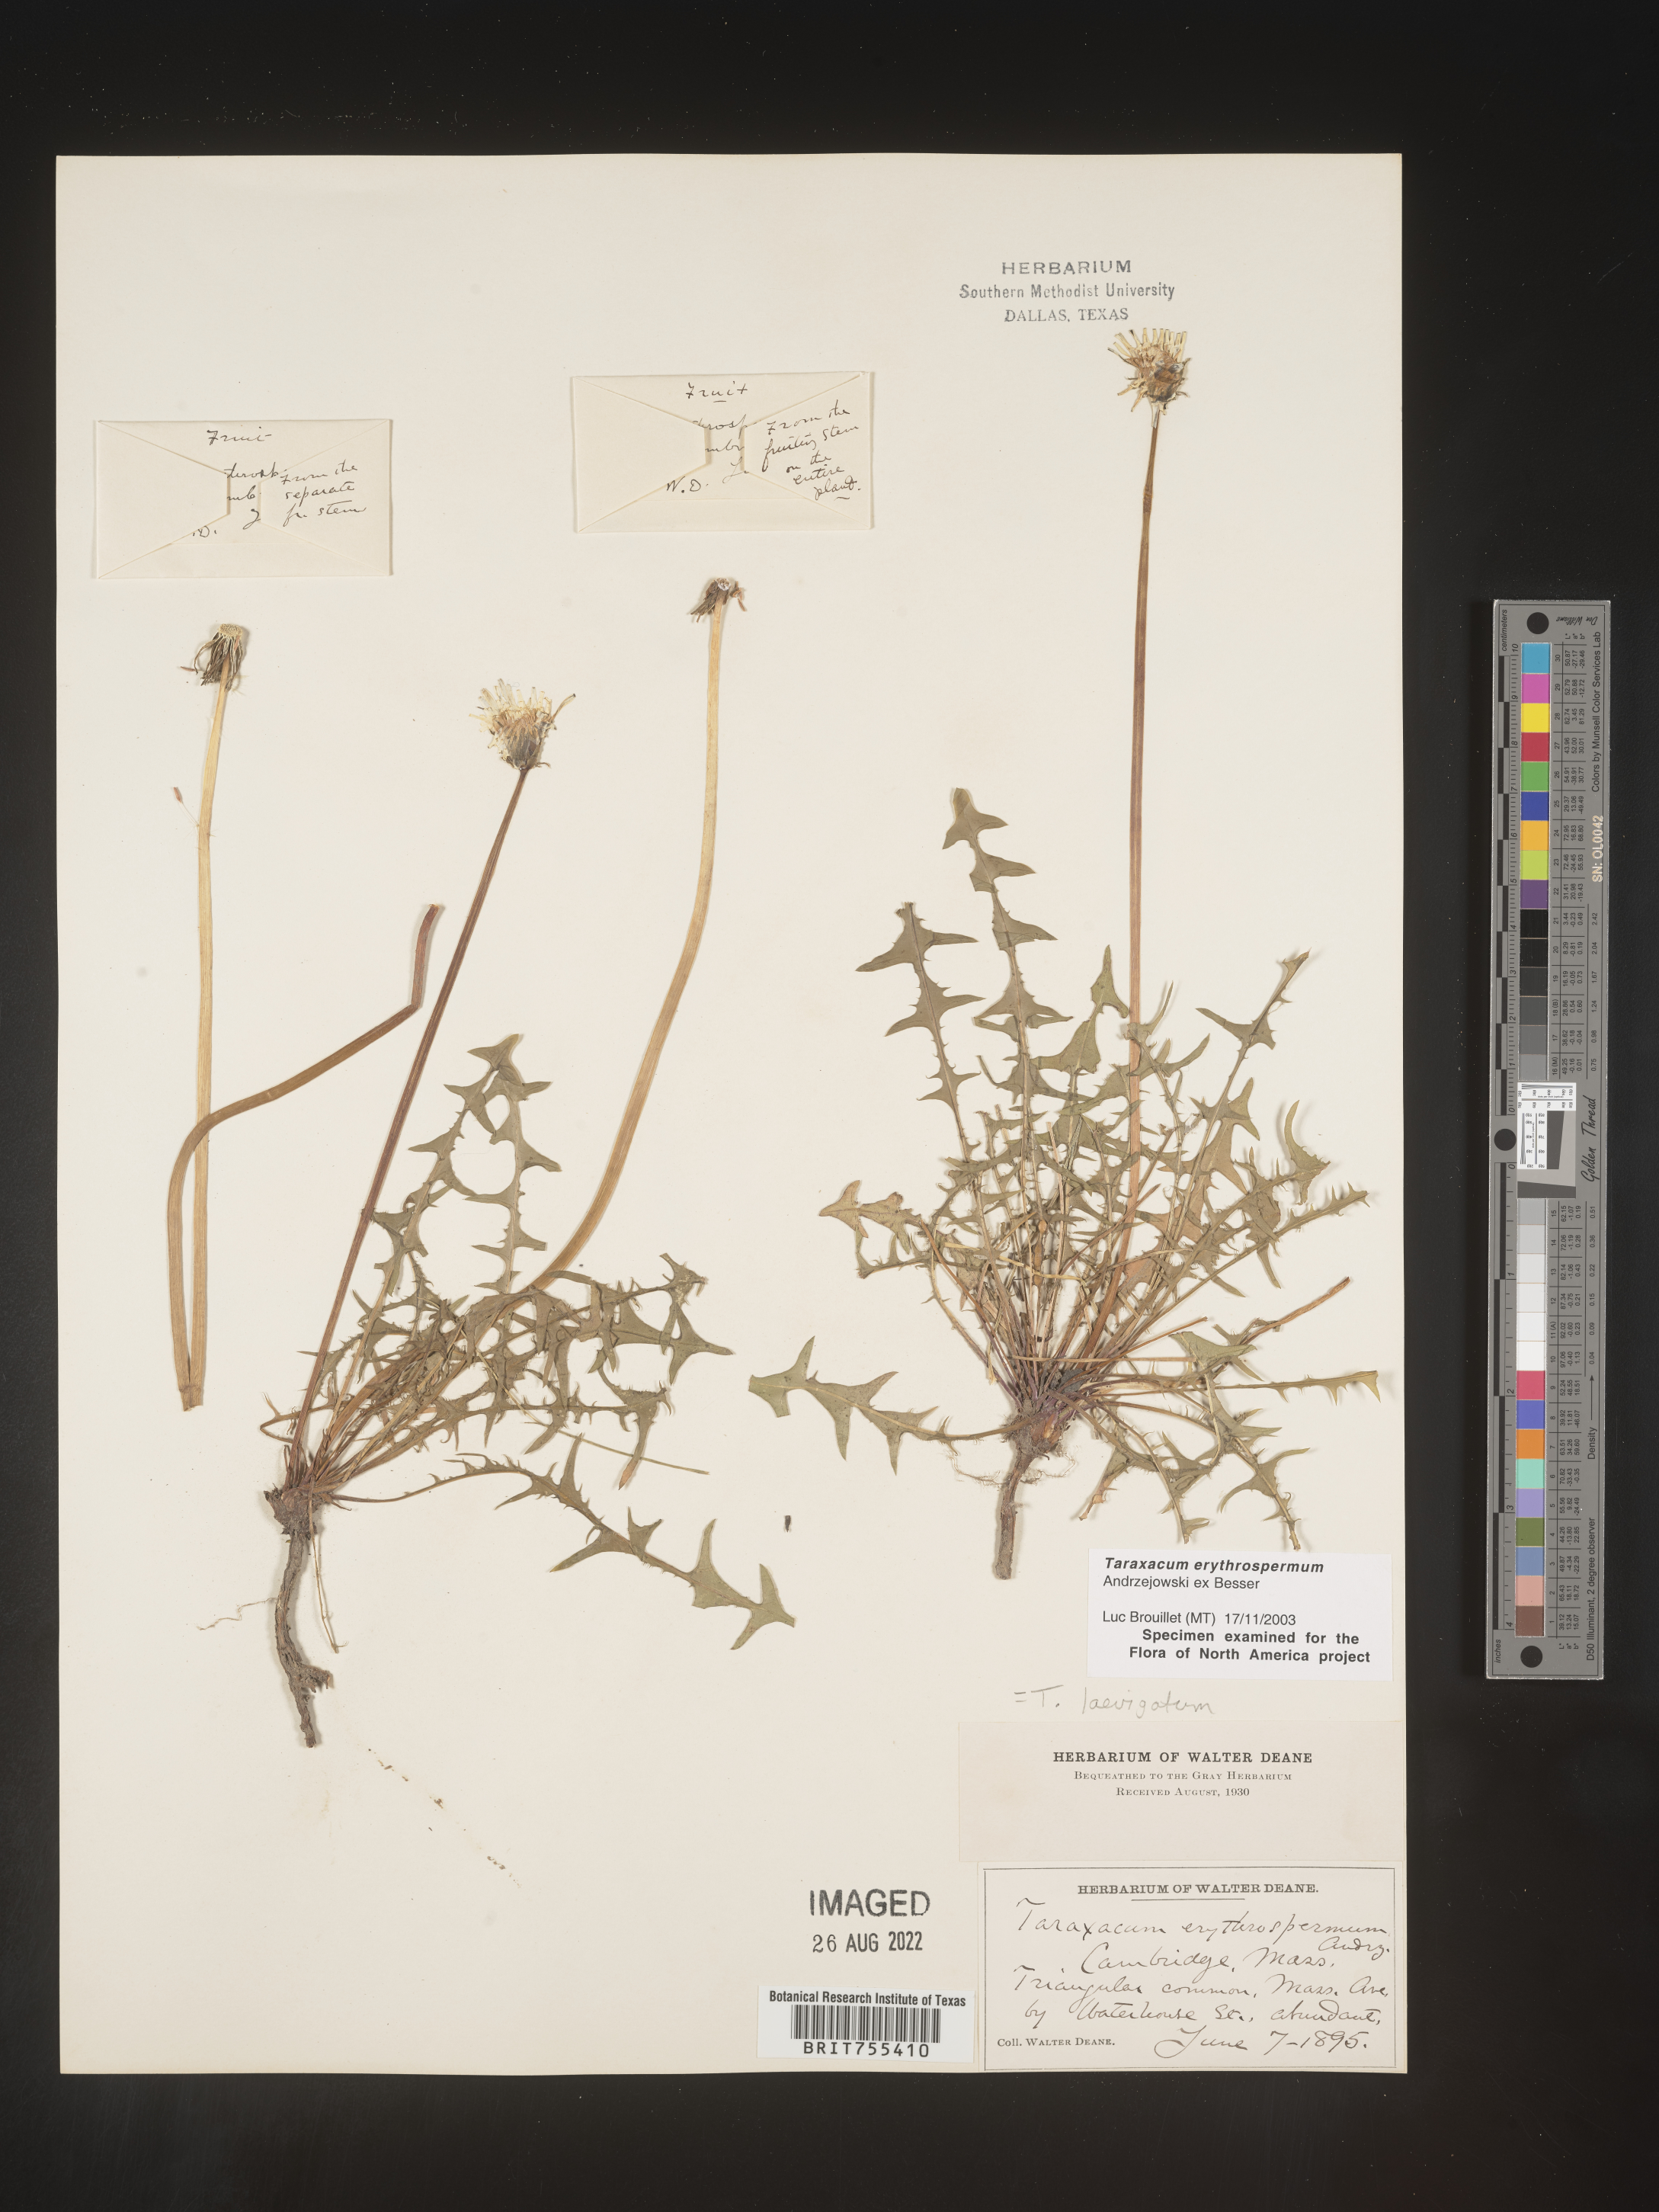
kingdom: Plantae
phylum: Tracheophyta
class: Magnoliopsida
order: Asterales
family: Asteraceae
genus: Taraxacum
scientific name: Taraxacum erythrospermum
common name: Rock dandelion
